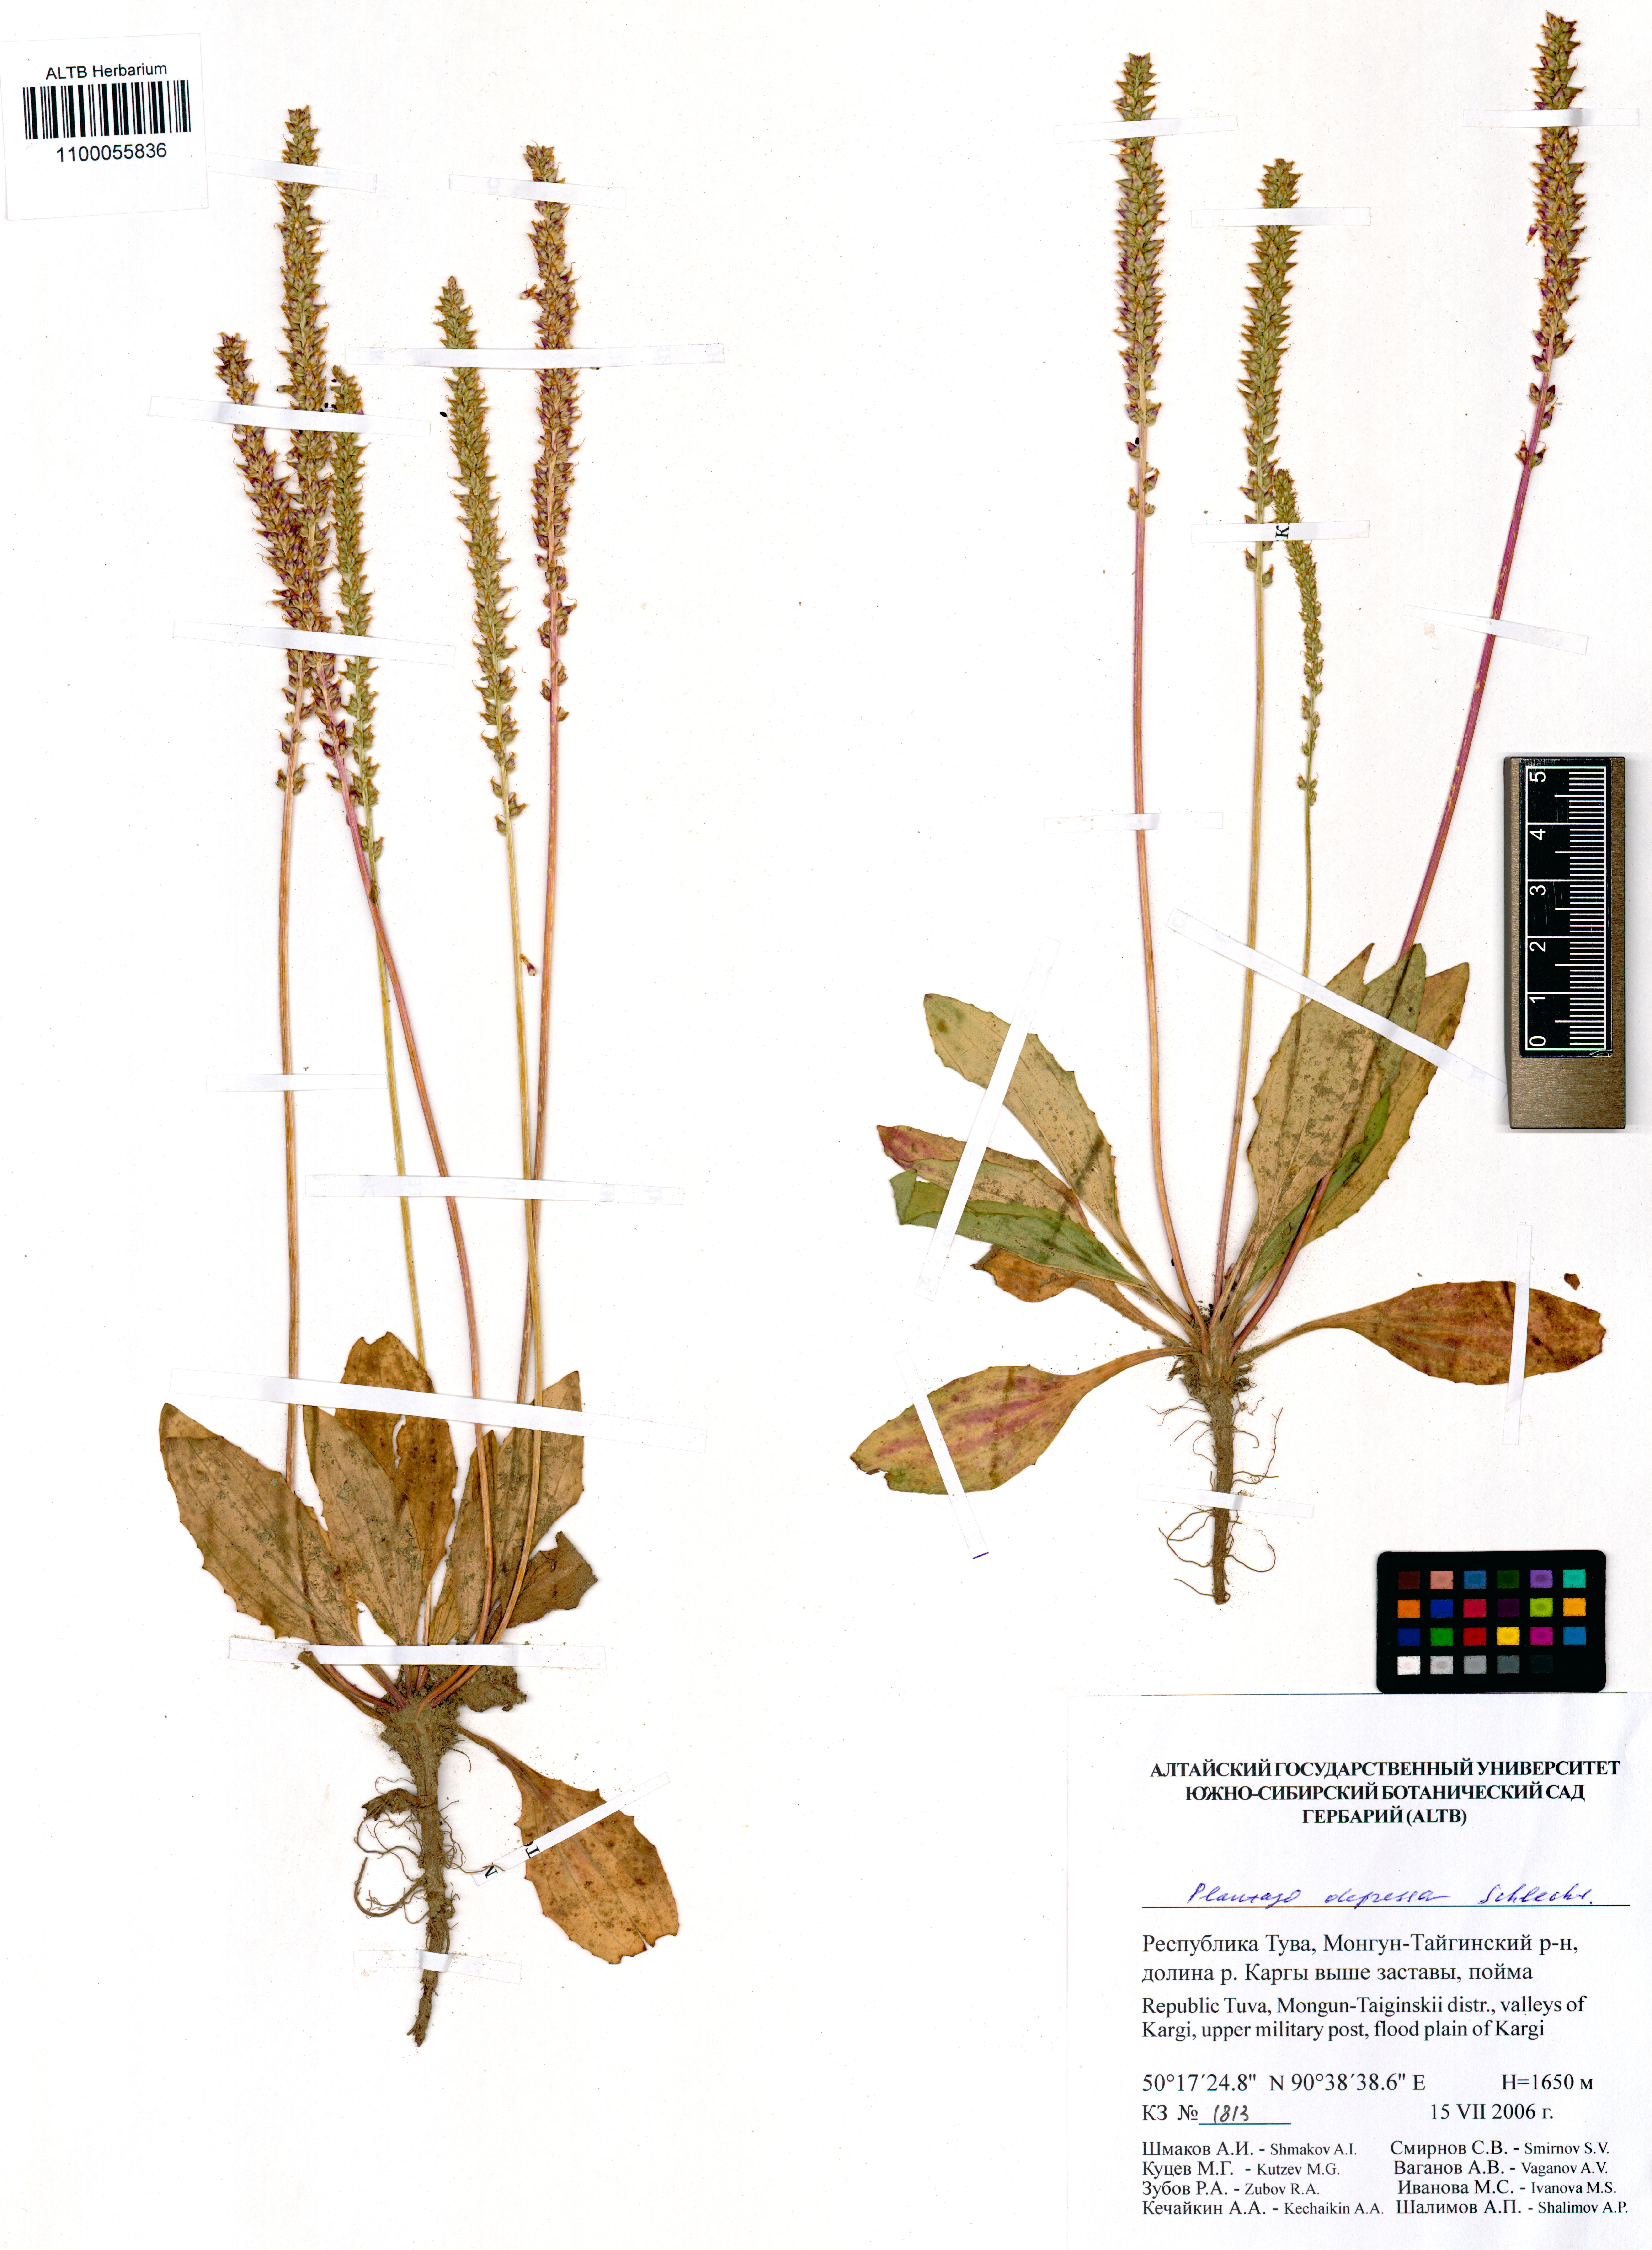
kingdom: Plantae
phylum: Tracheophyta
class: Magnoliopsida
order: Lamiales
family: Plantaginaceae
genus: Plantago
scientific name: Plantago depressa
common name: Depressed plantain
